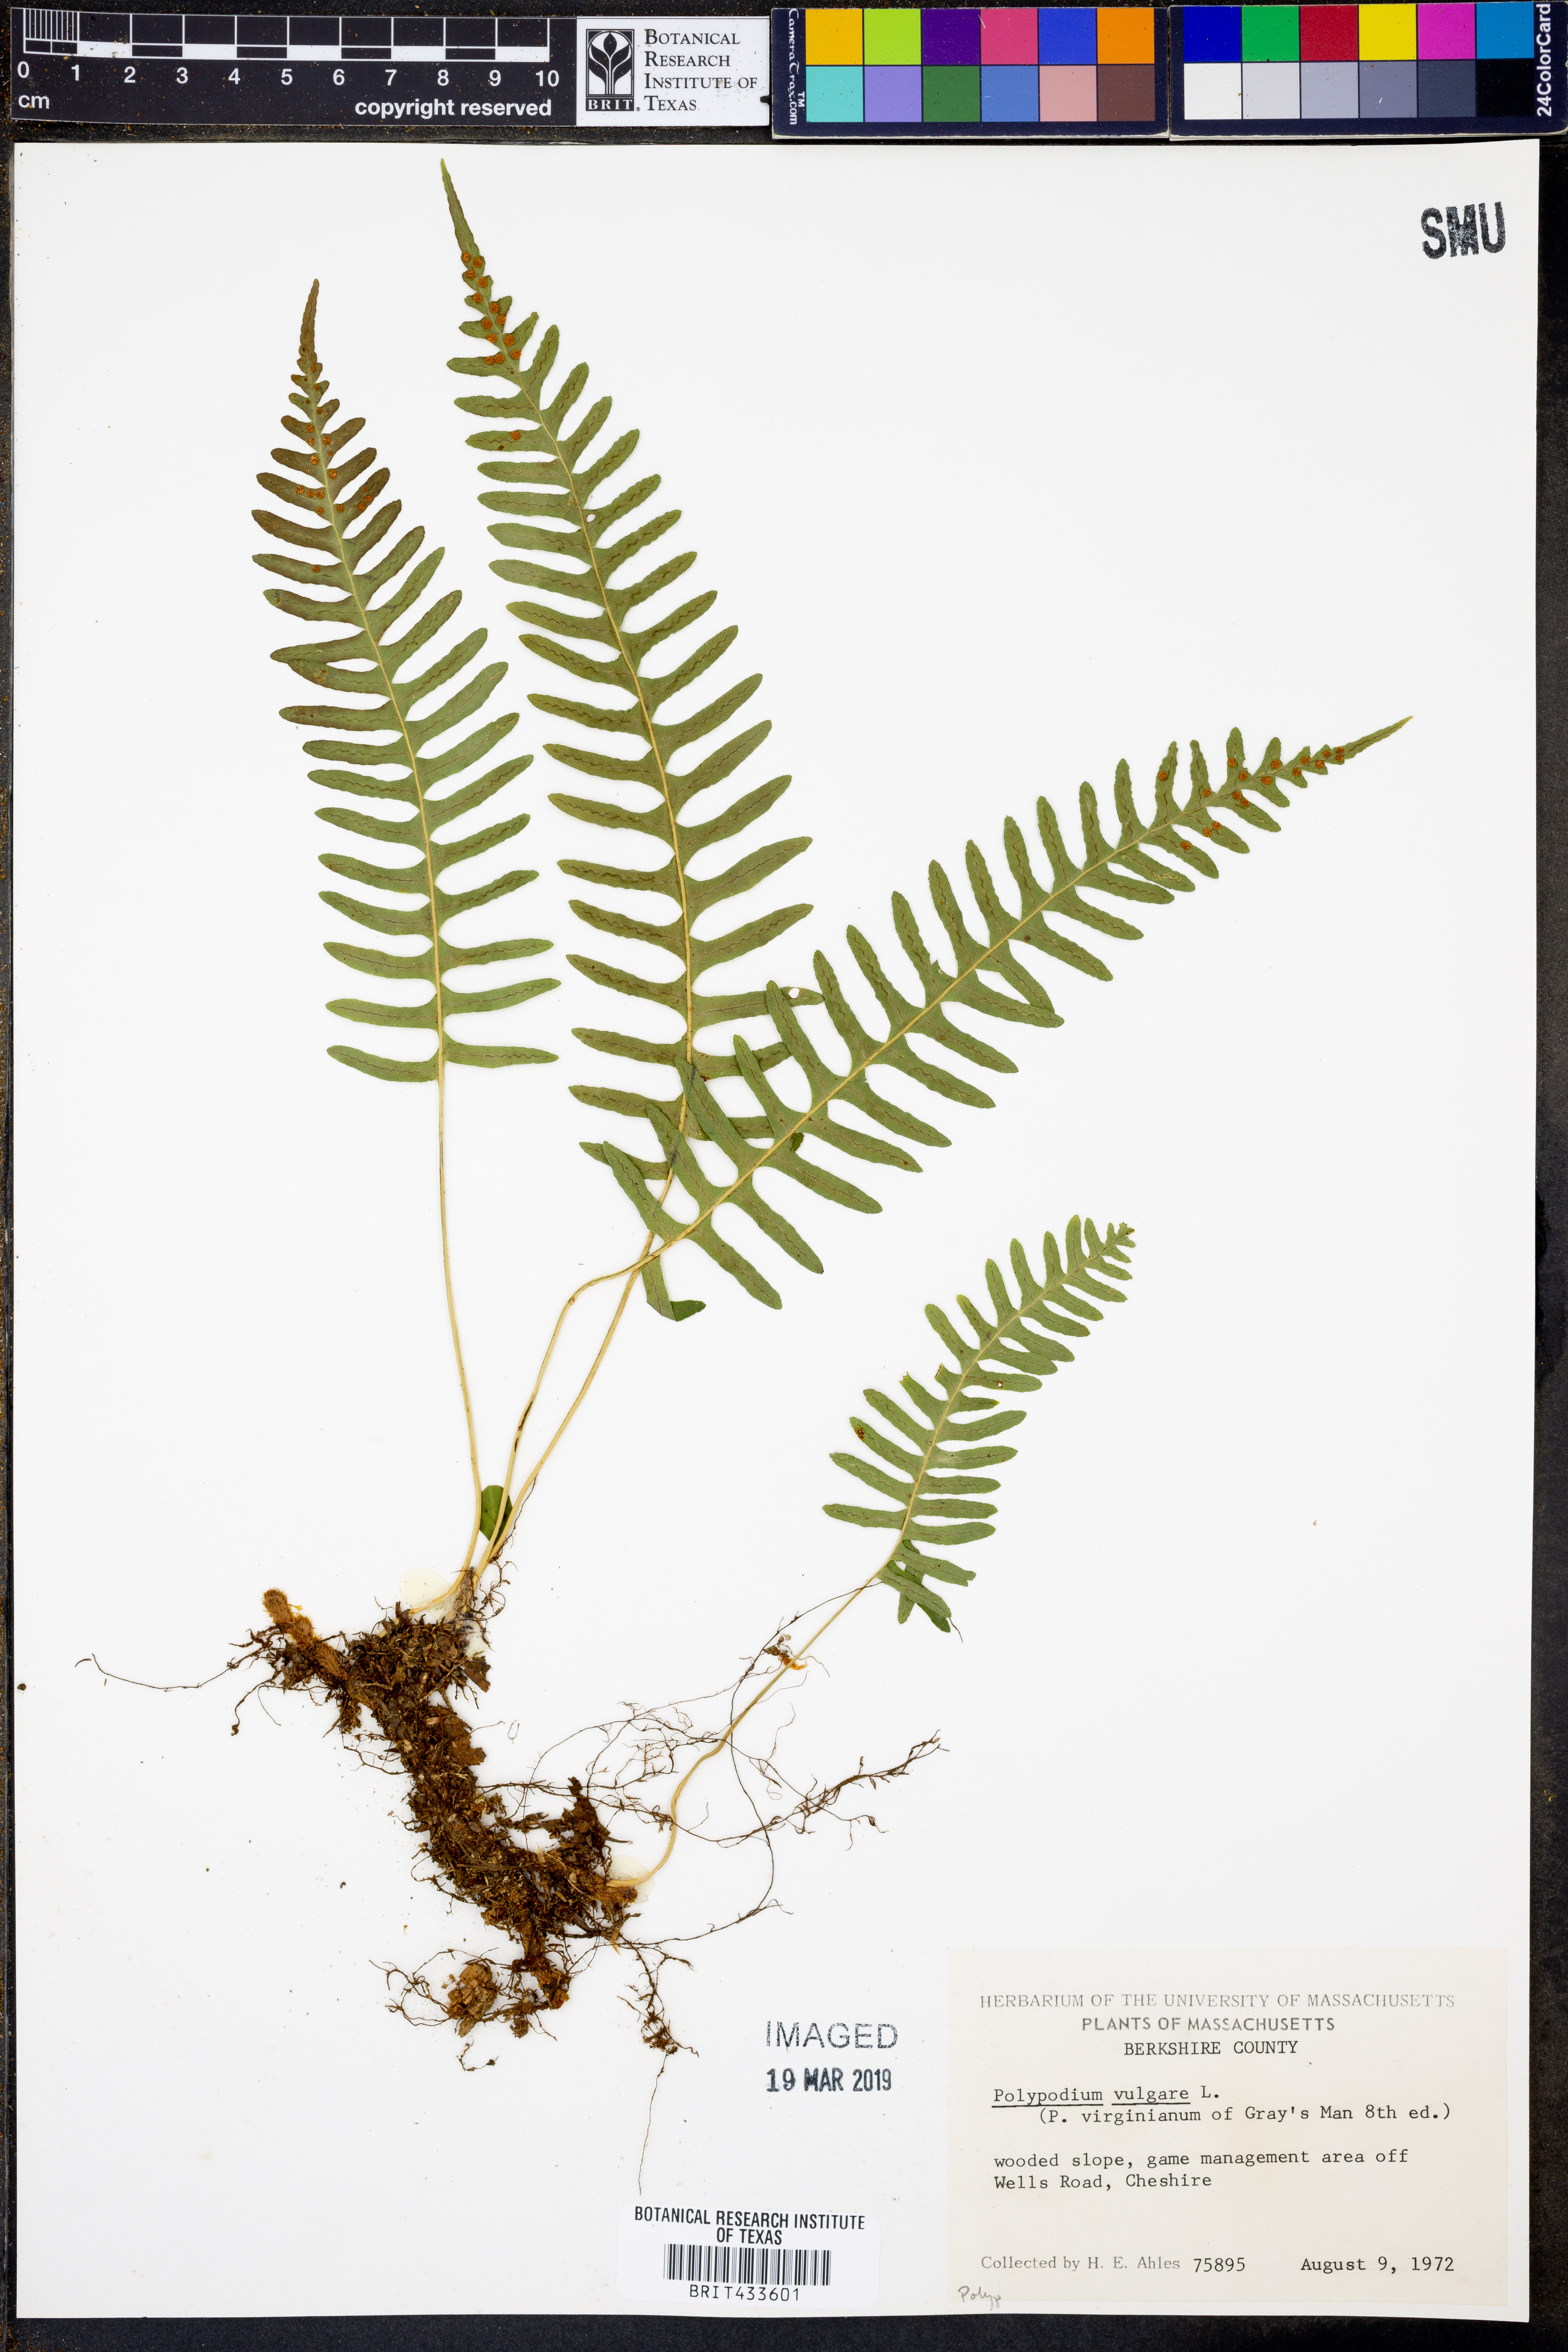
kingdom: Plantae
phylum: Tracheophyta
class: Polypodiopsida
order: Polypodiales
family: Polypodiaceae
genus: Polypodium
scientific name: Polypodium vulgare
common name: Common polypody
